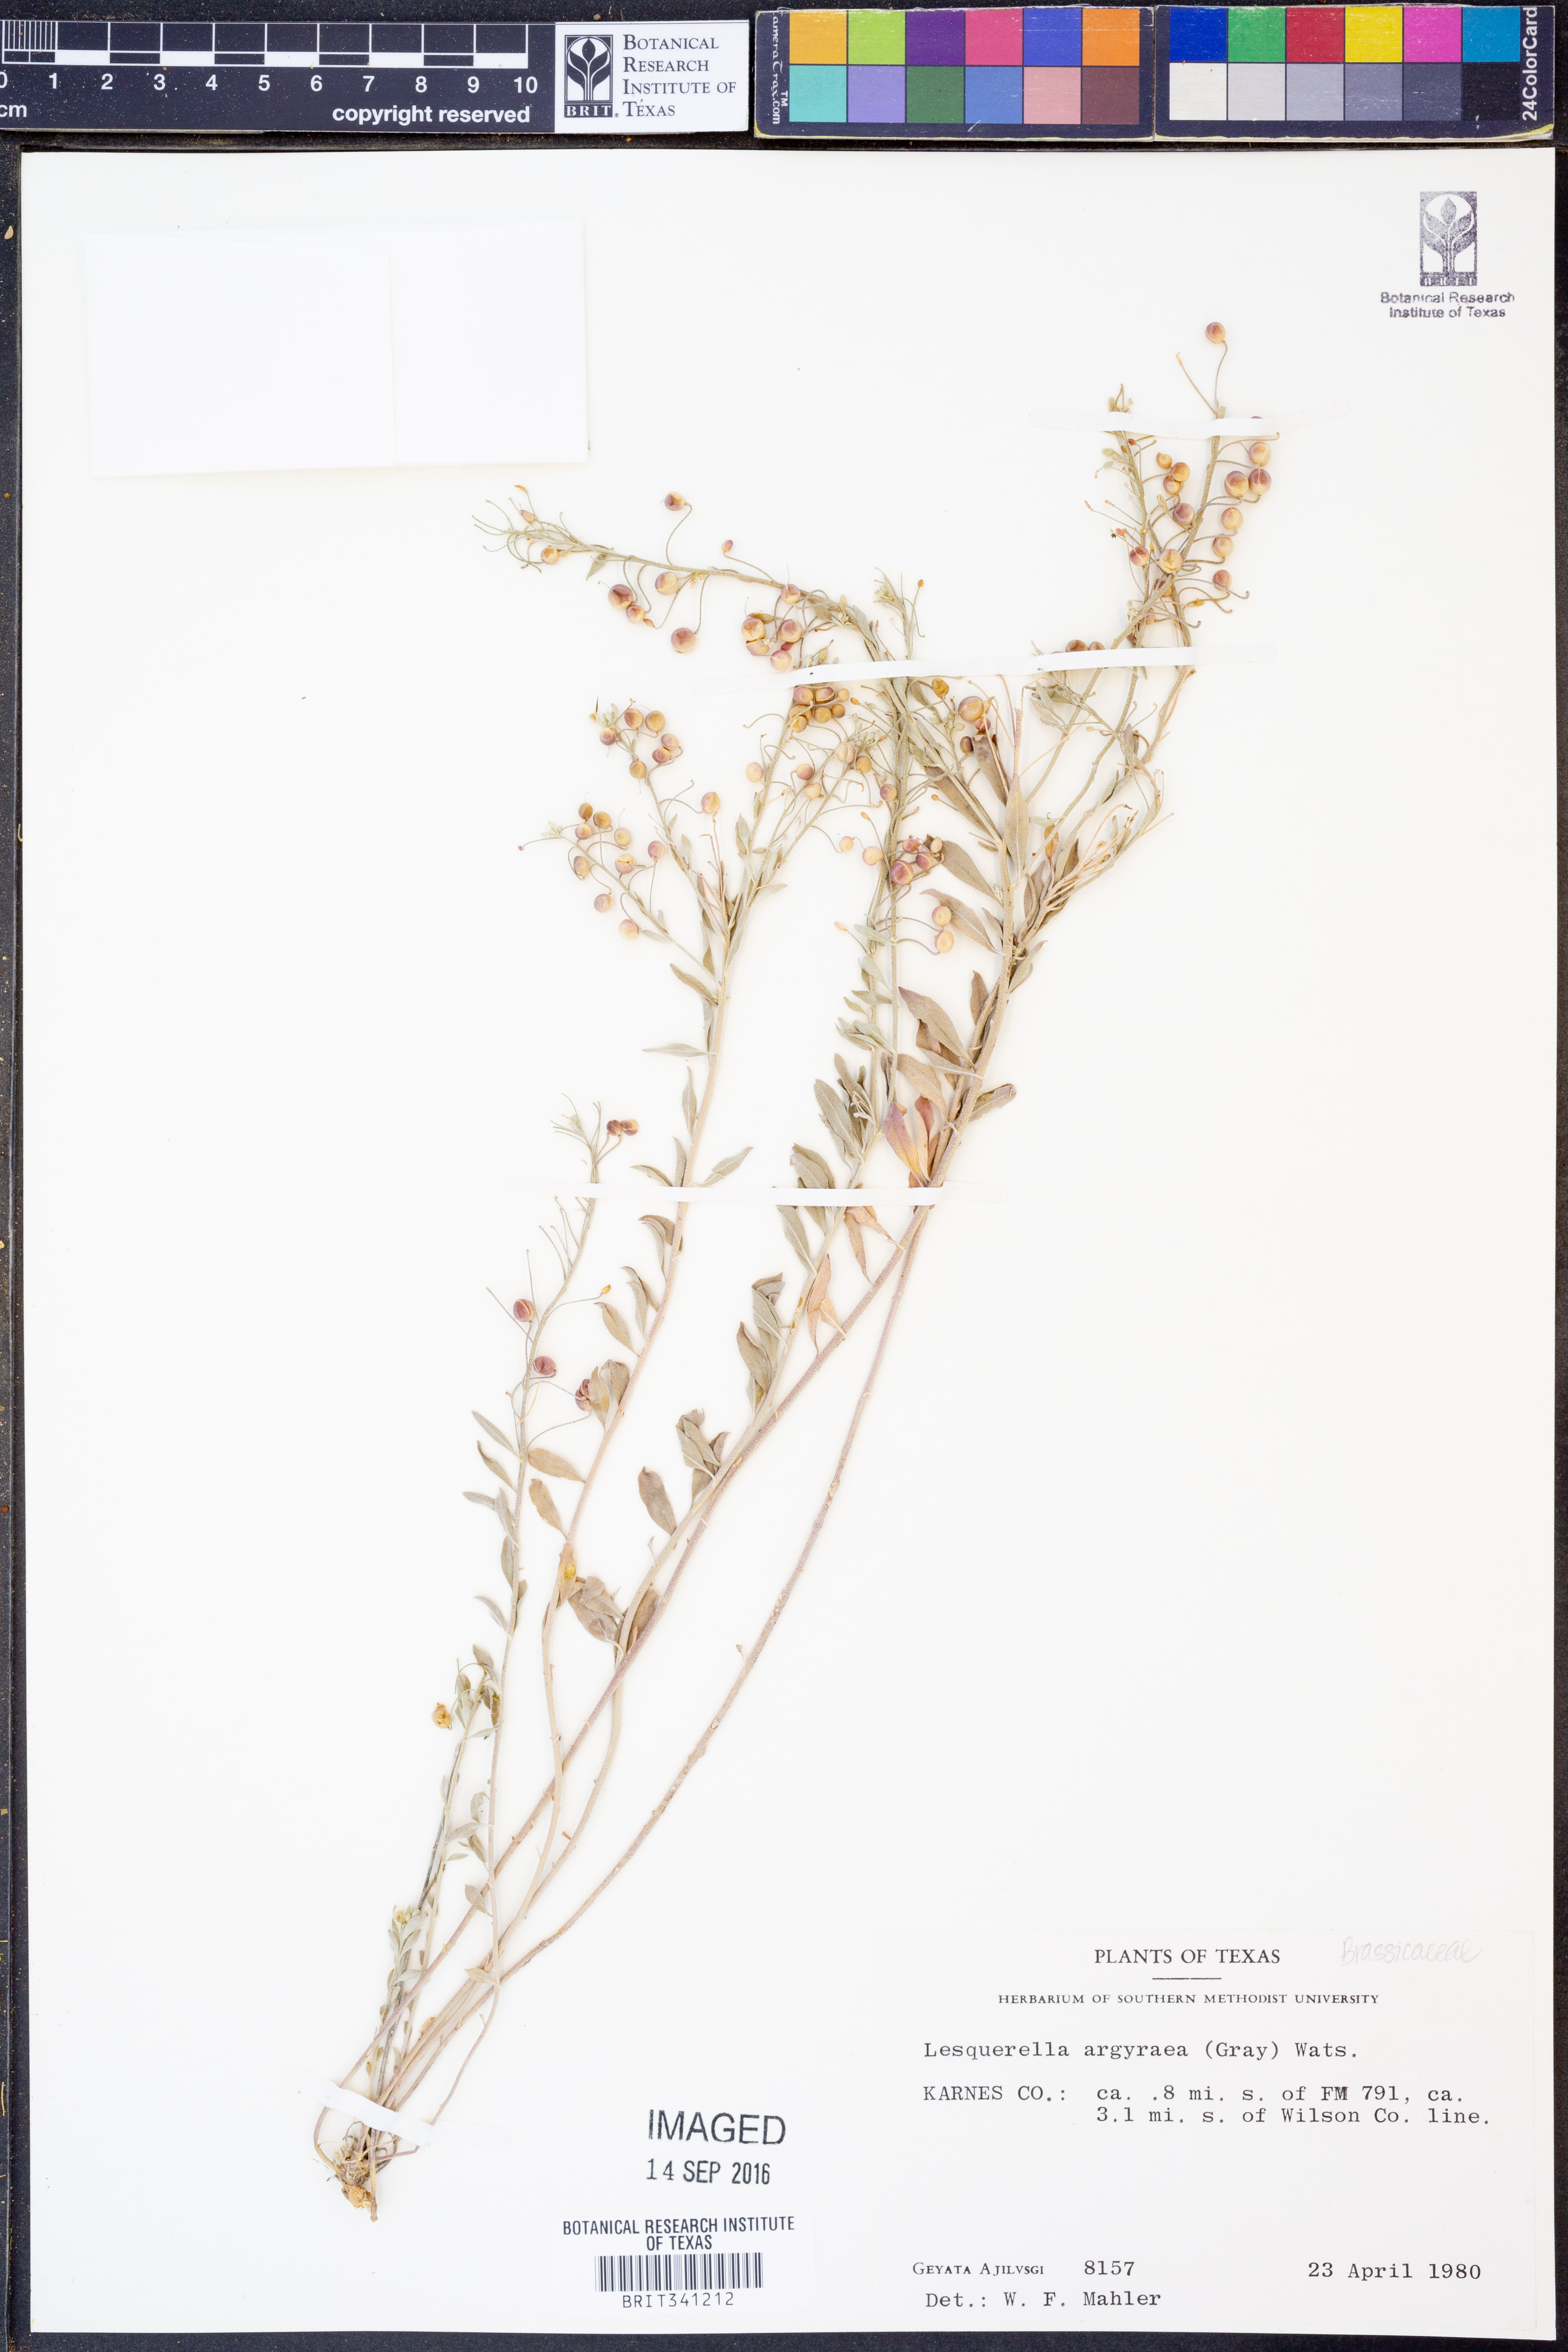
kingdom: Plantae
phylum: Tracheophyta
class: Magnoliopsida
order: Brassicales
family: Brassicaceae
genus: Physaria
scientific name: Physaria argyraea
